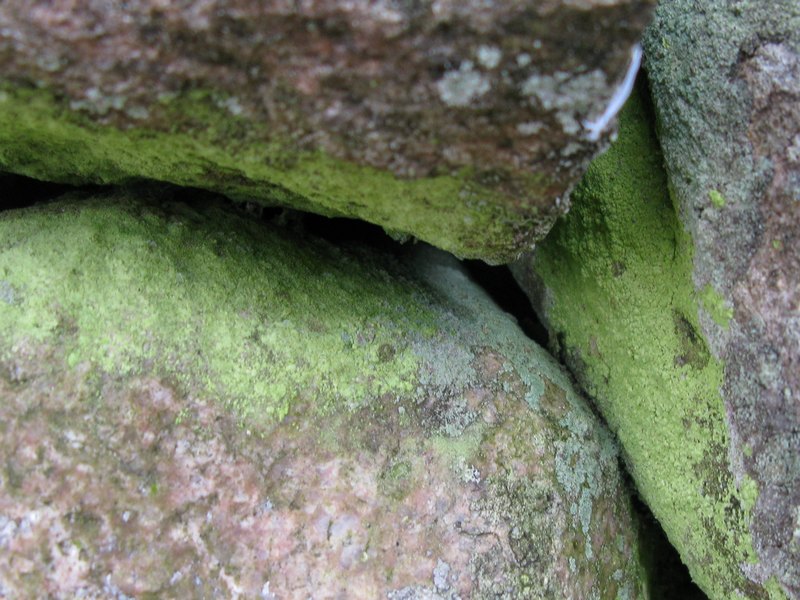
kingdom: Fungi
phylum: Ascomycota
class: Lecanoromycetes
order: Lecanorales
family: Psilolechiaceae
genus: Psilolechia
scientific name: Psilolechia lucida
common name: gul skyggelav
